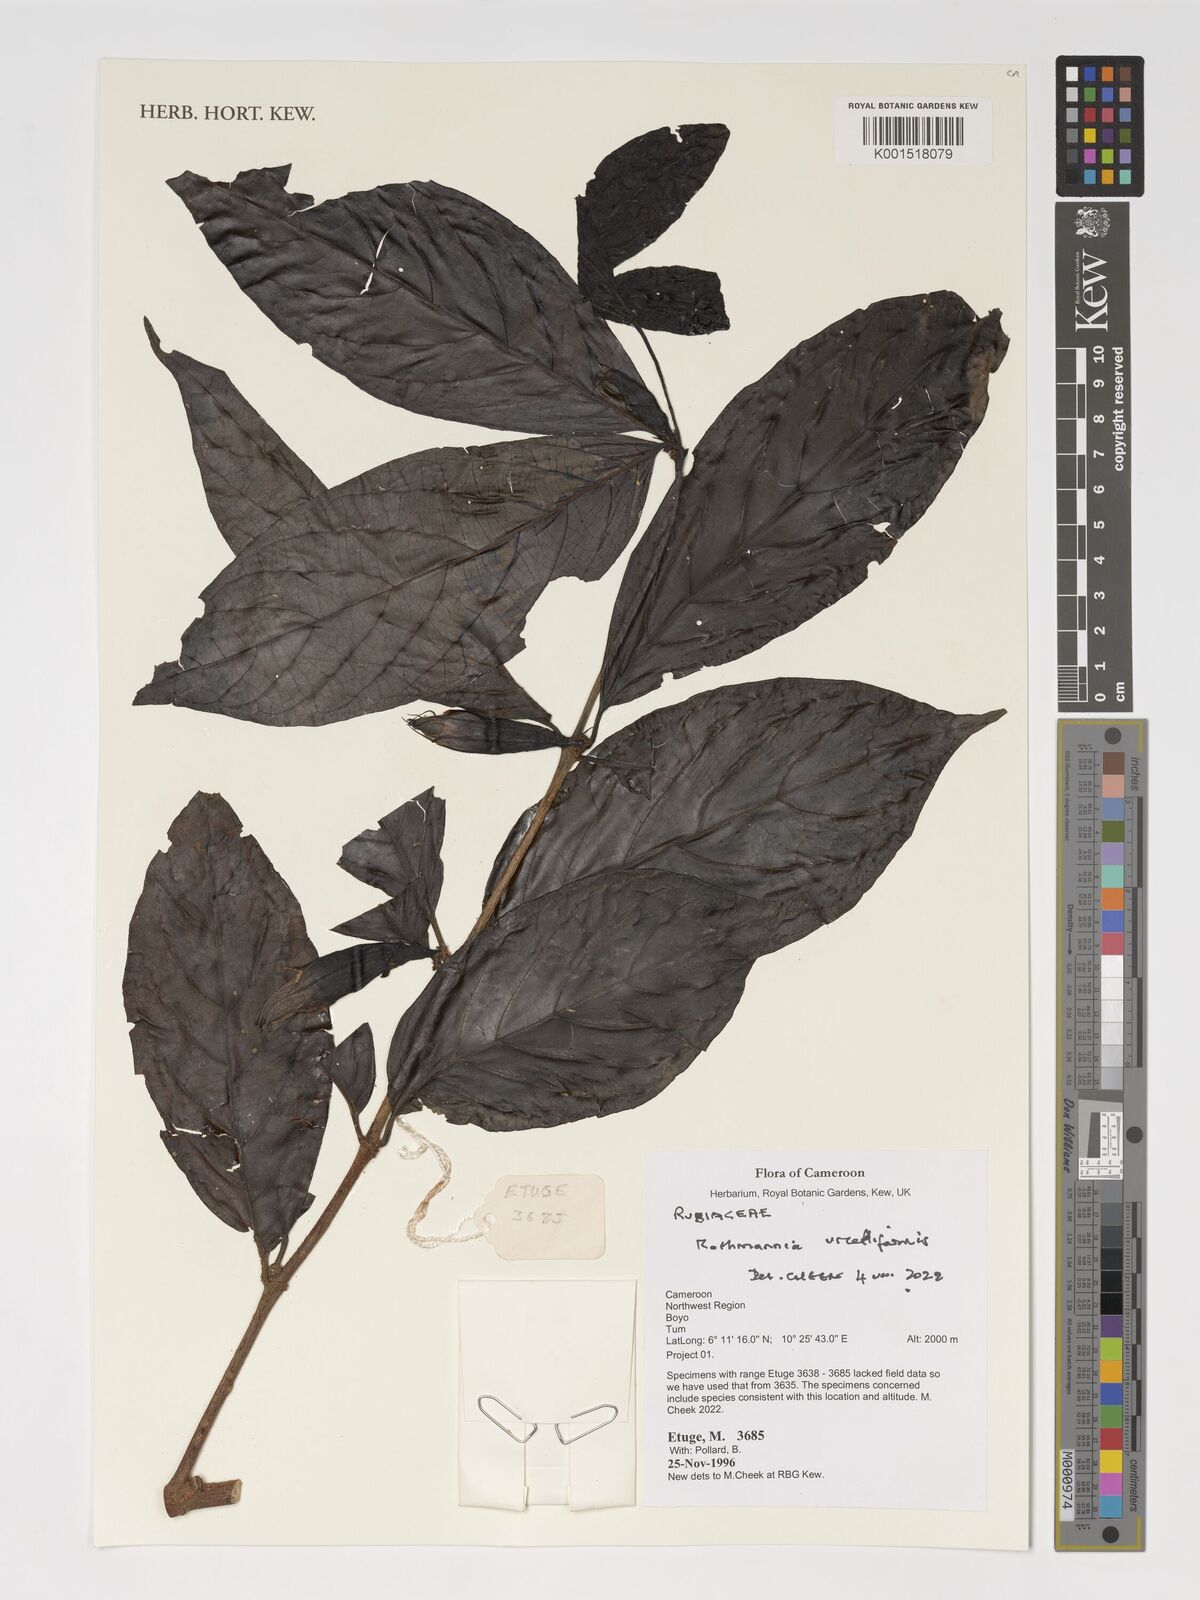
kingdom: Plantae
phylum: Tracheophyta
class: Magnoliopsida
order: Gentianales
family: Rubiaceae
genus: Rothmannia
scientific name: Rothmannia urcelliformis
